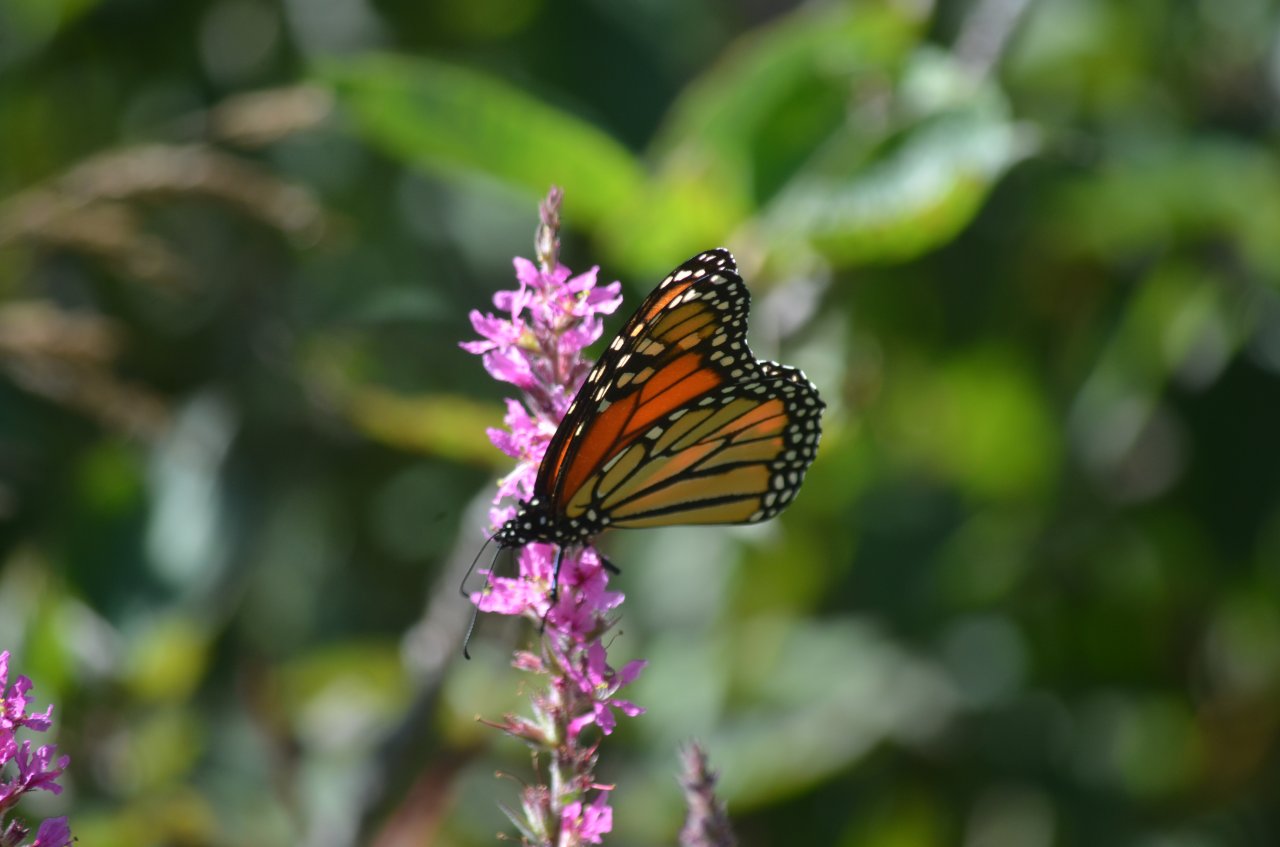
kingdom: Animalia
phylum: Arthropoda
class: Insecta
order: Lepidoptera
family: Nymphalidae
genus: Danaus
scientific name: Danaus plexippus
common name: Monarch
